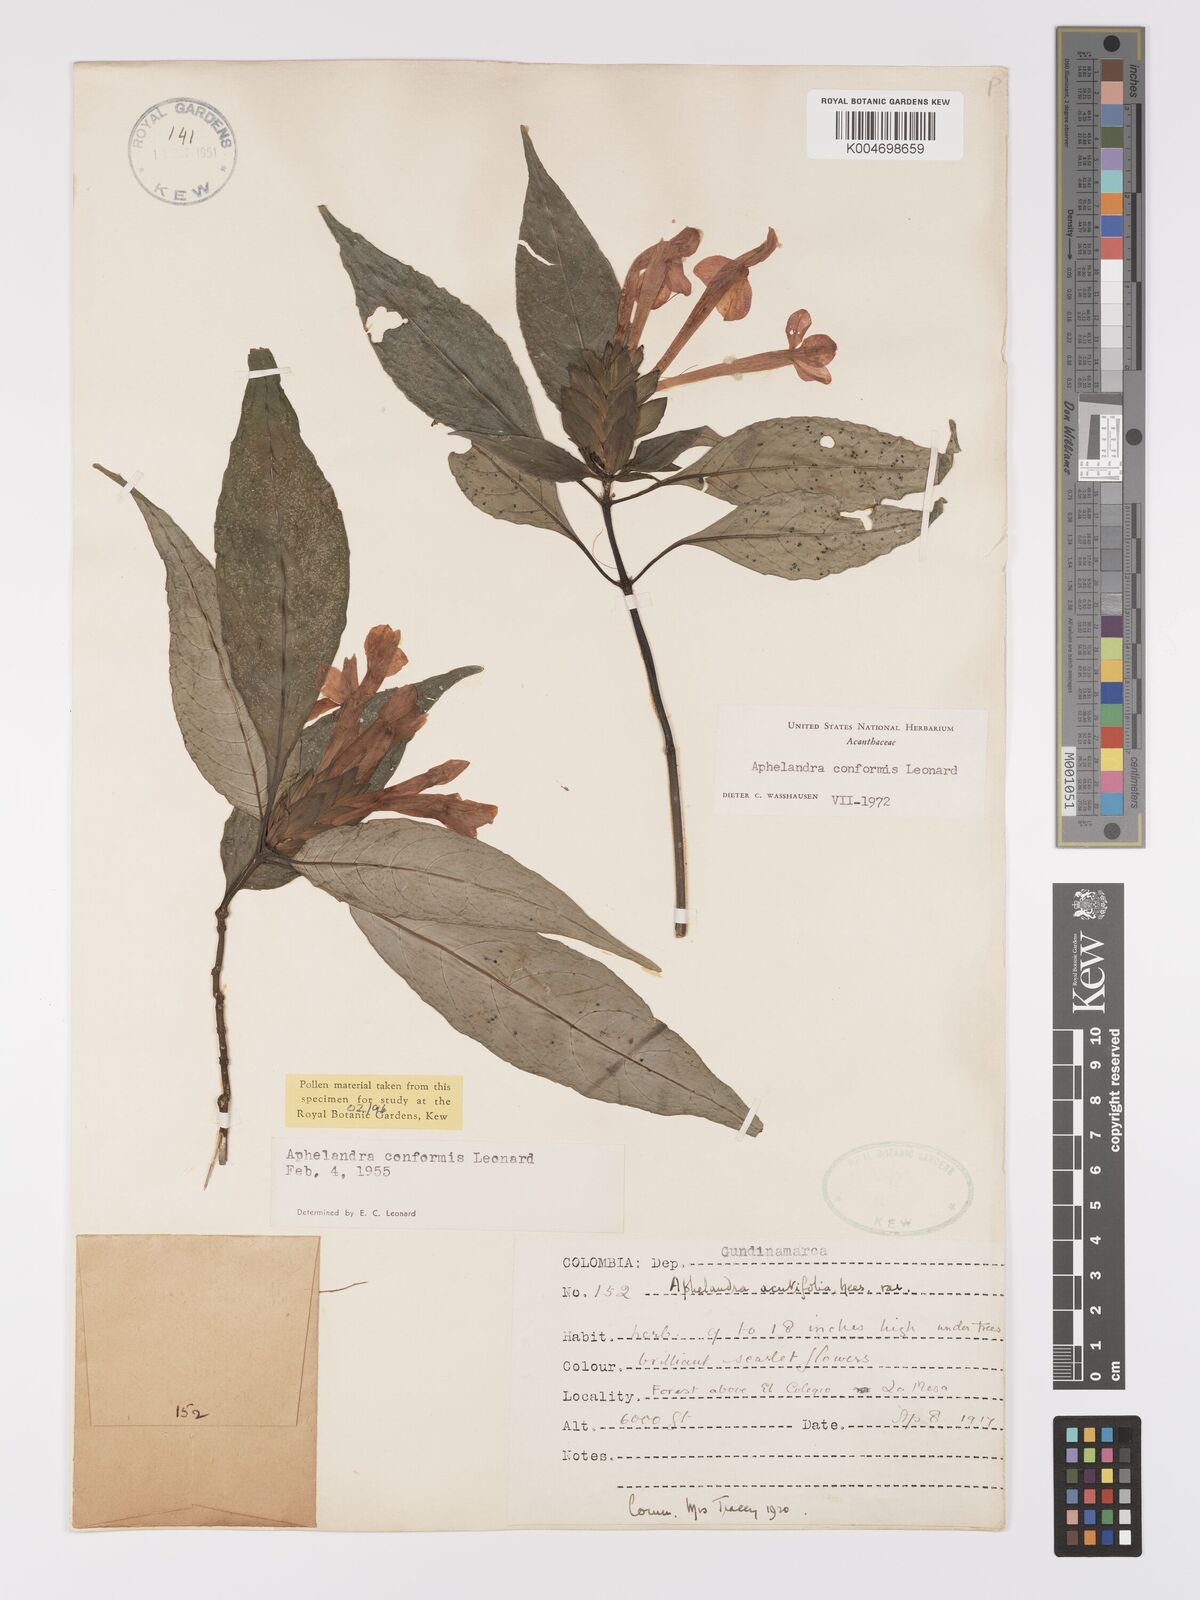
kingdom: Plantae
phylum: Tracheophyta
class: Magnoliopsida
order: Lamiales
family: Acanthaceae
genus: Aphelandra
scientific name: Aphelandra conformis
